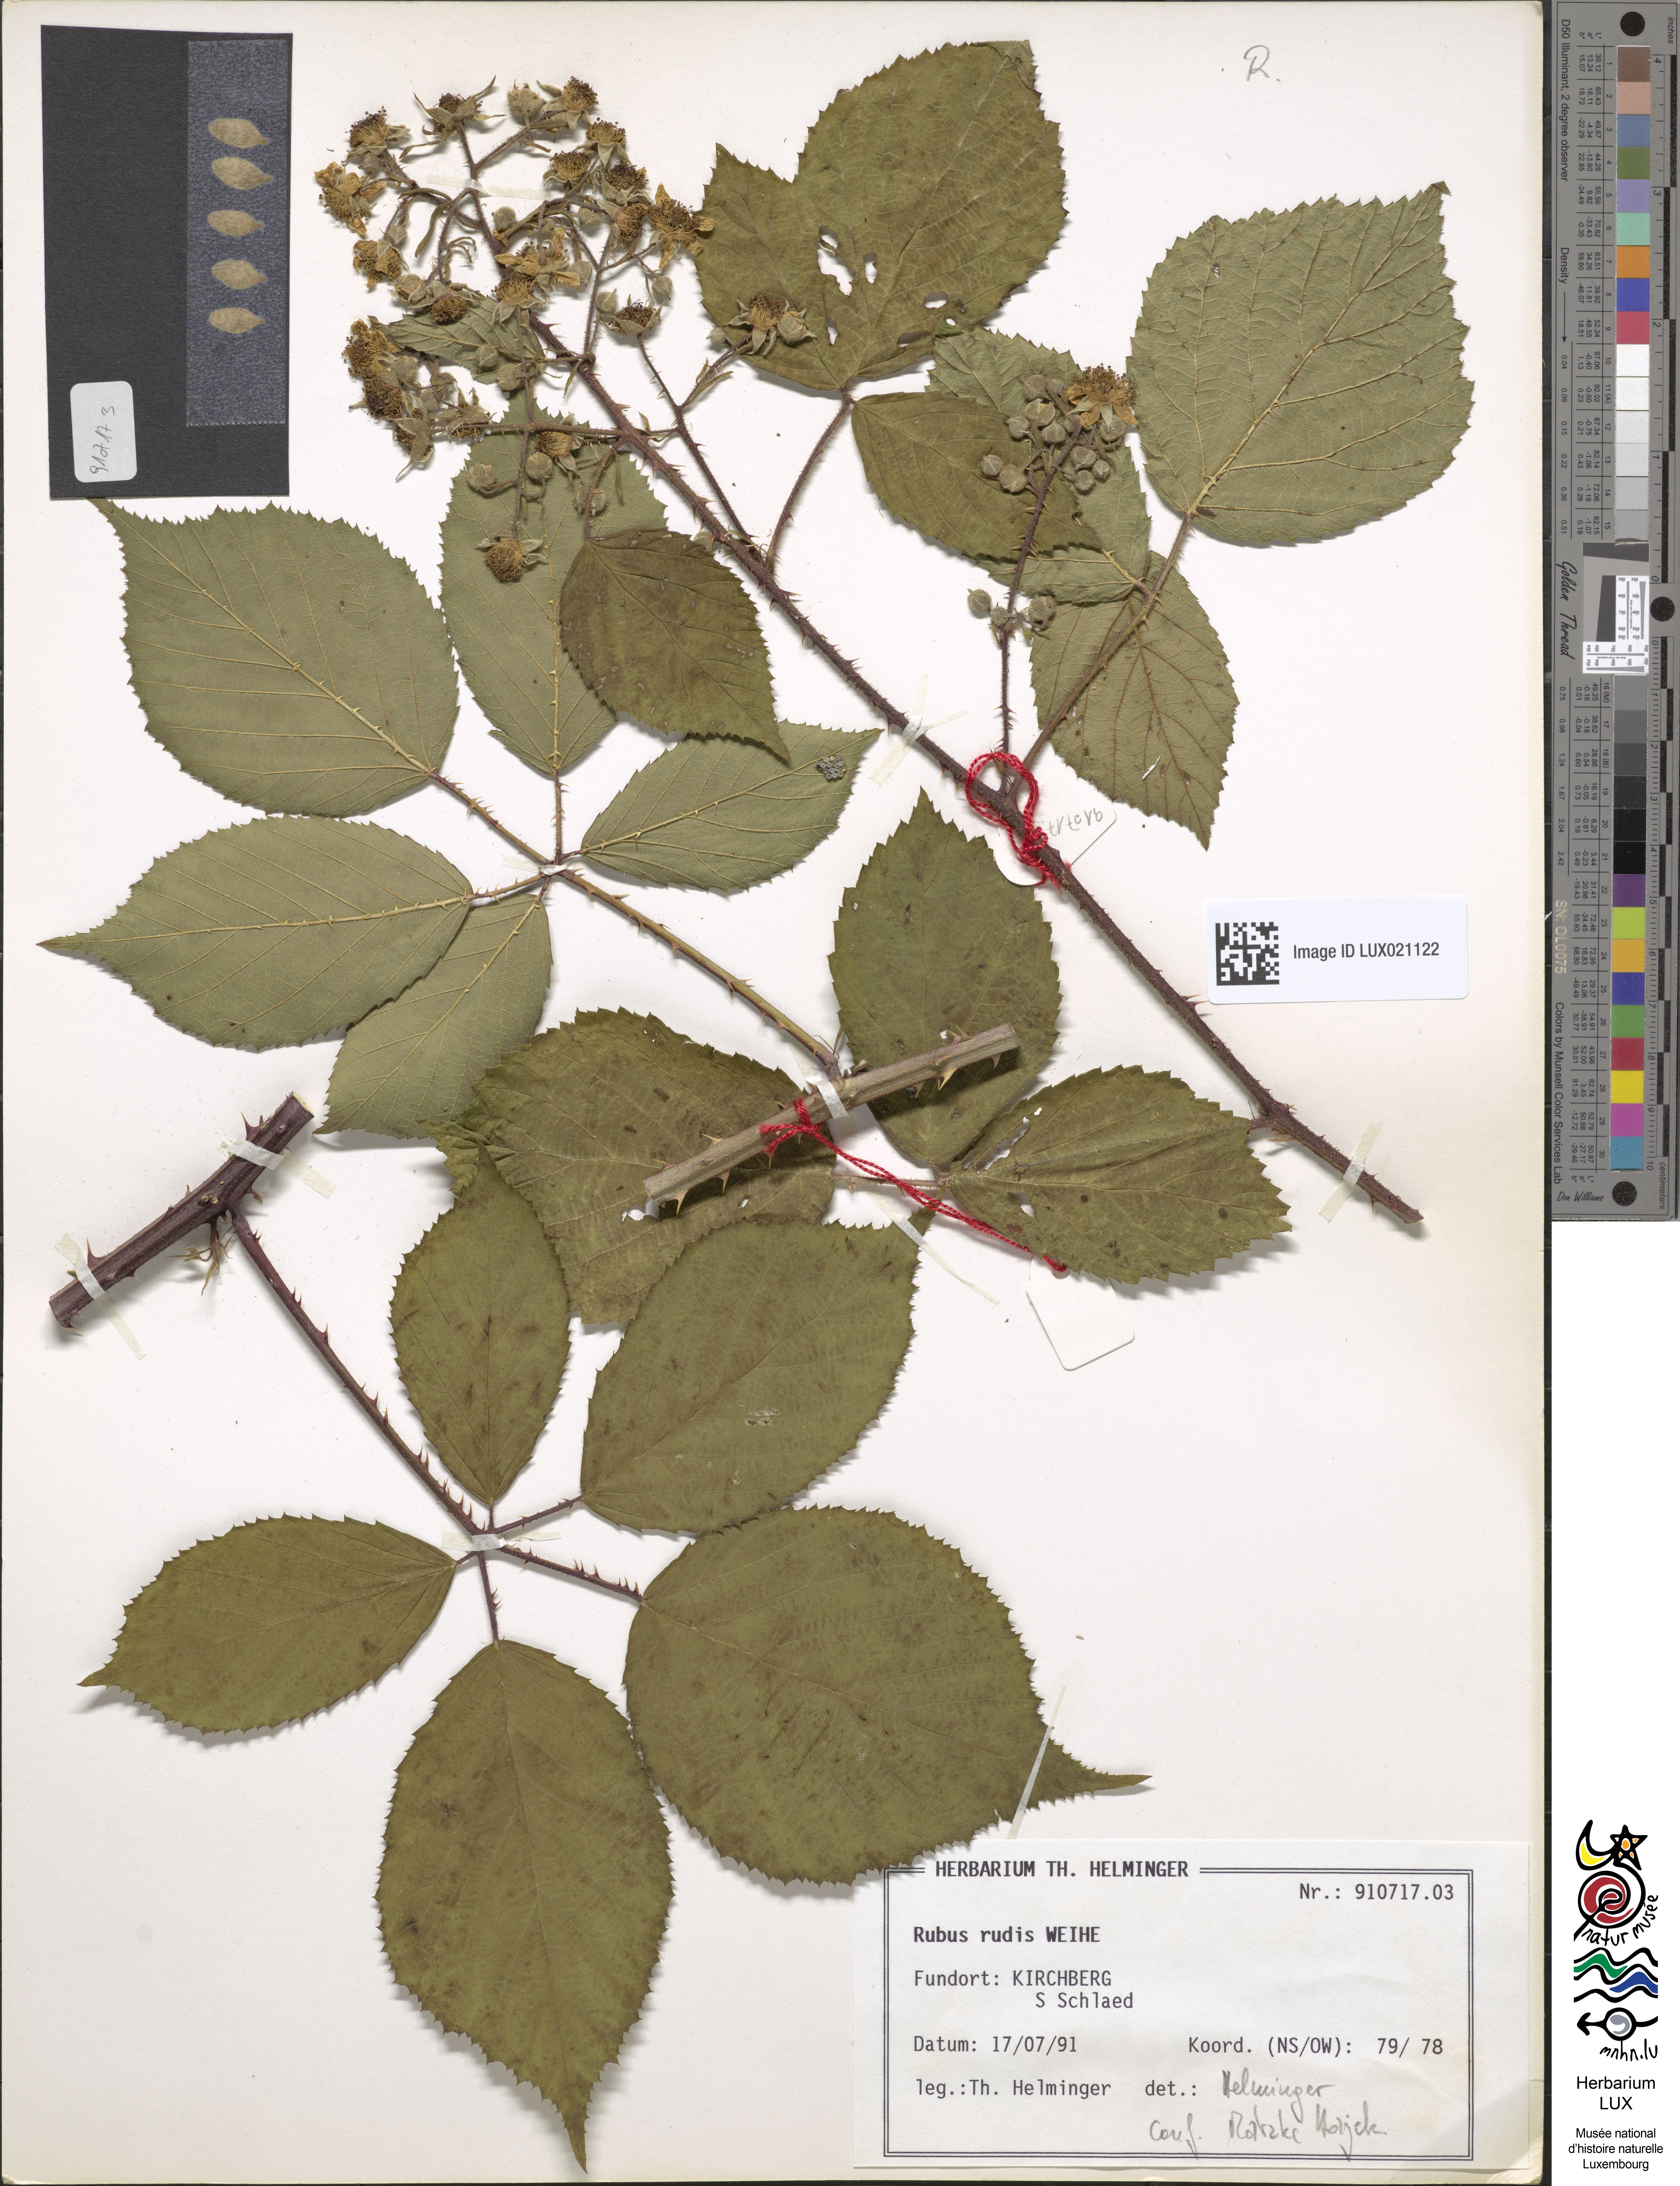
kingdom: Plantae
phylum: Tracheophyta
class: Magnoliopsida
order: Rosales
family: Rosaceae
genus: Rubus
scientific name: Rubus rudis
